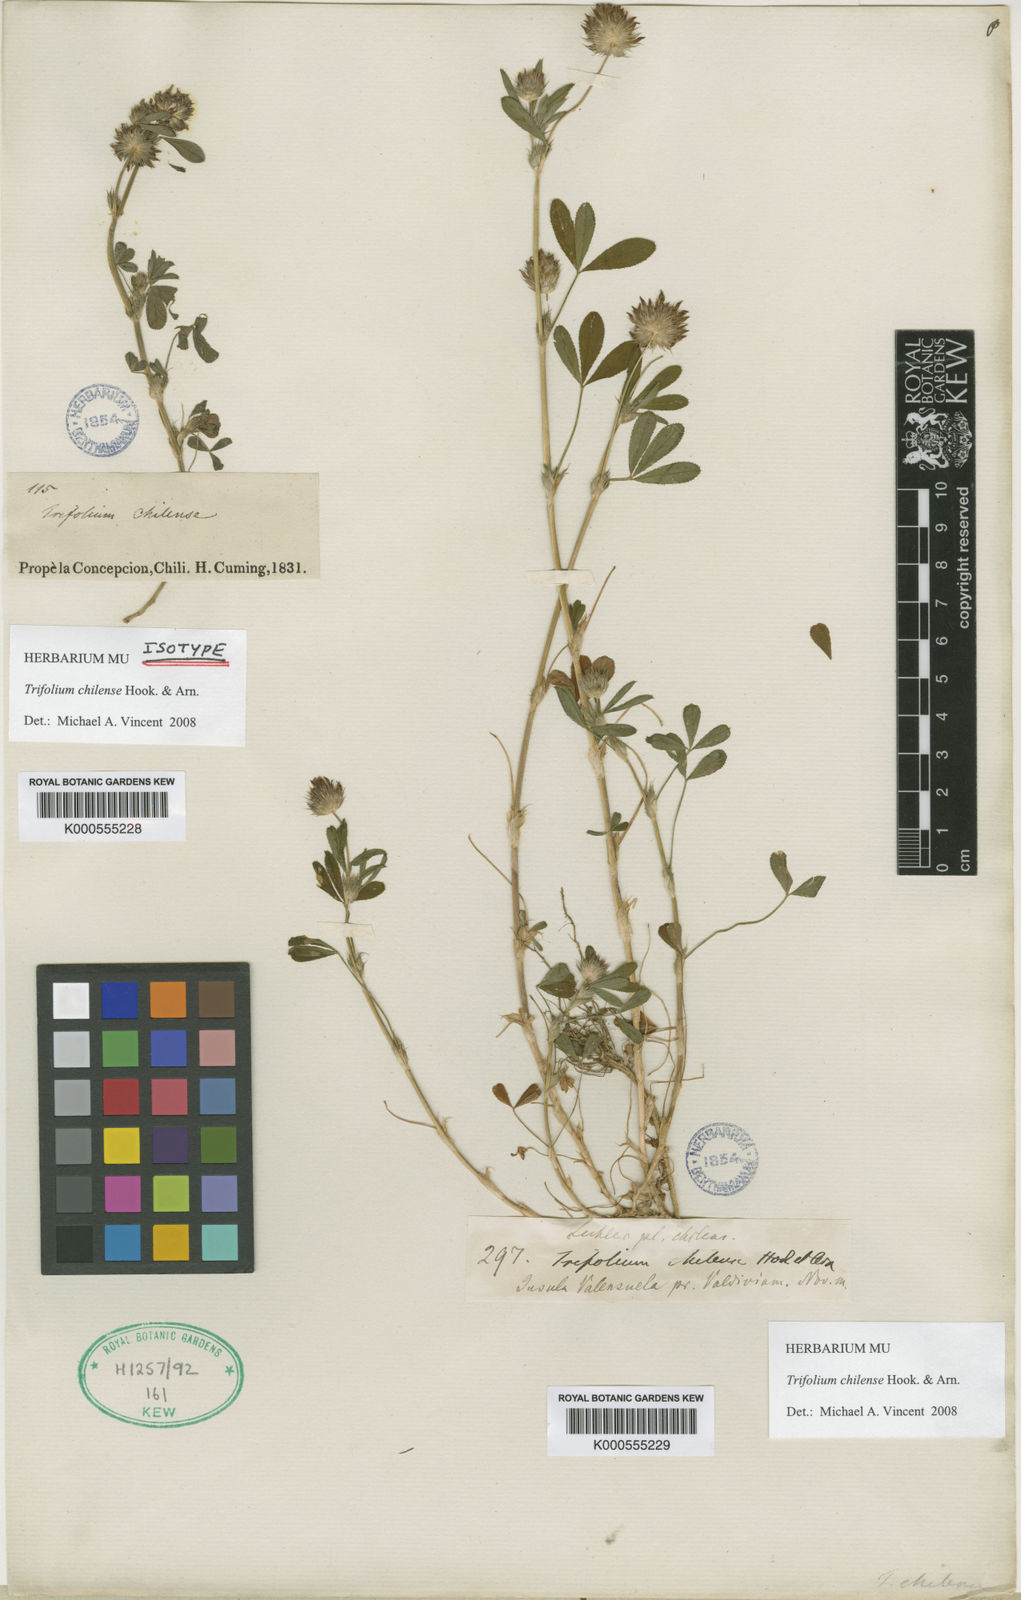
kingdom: Plantae
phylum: Tracheophyta
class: Magnoliopsida
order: Fabales
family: Fabaceae
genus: Trifolium
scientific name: Trifolium chilense
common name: Chilean clover
